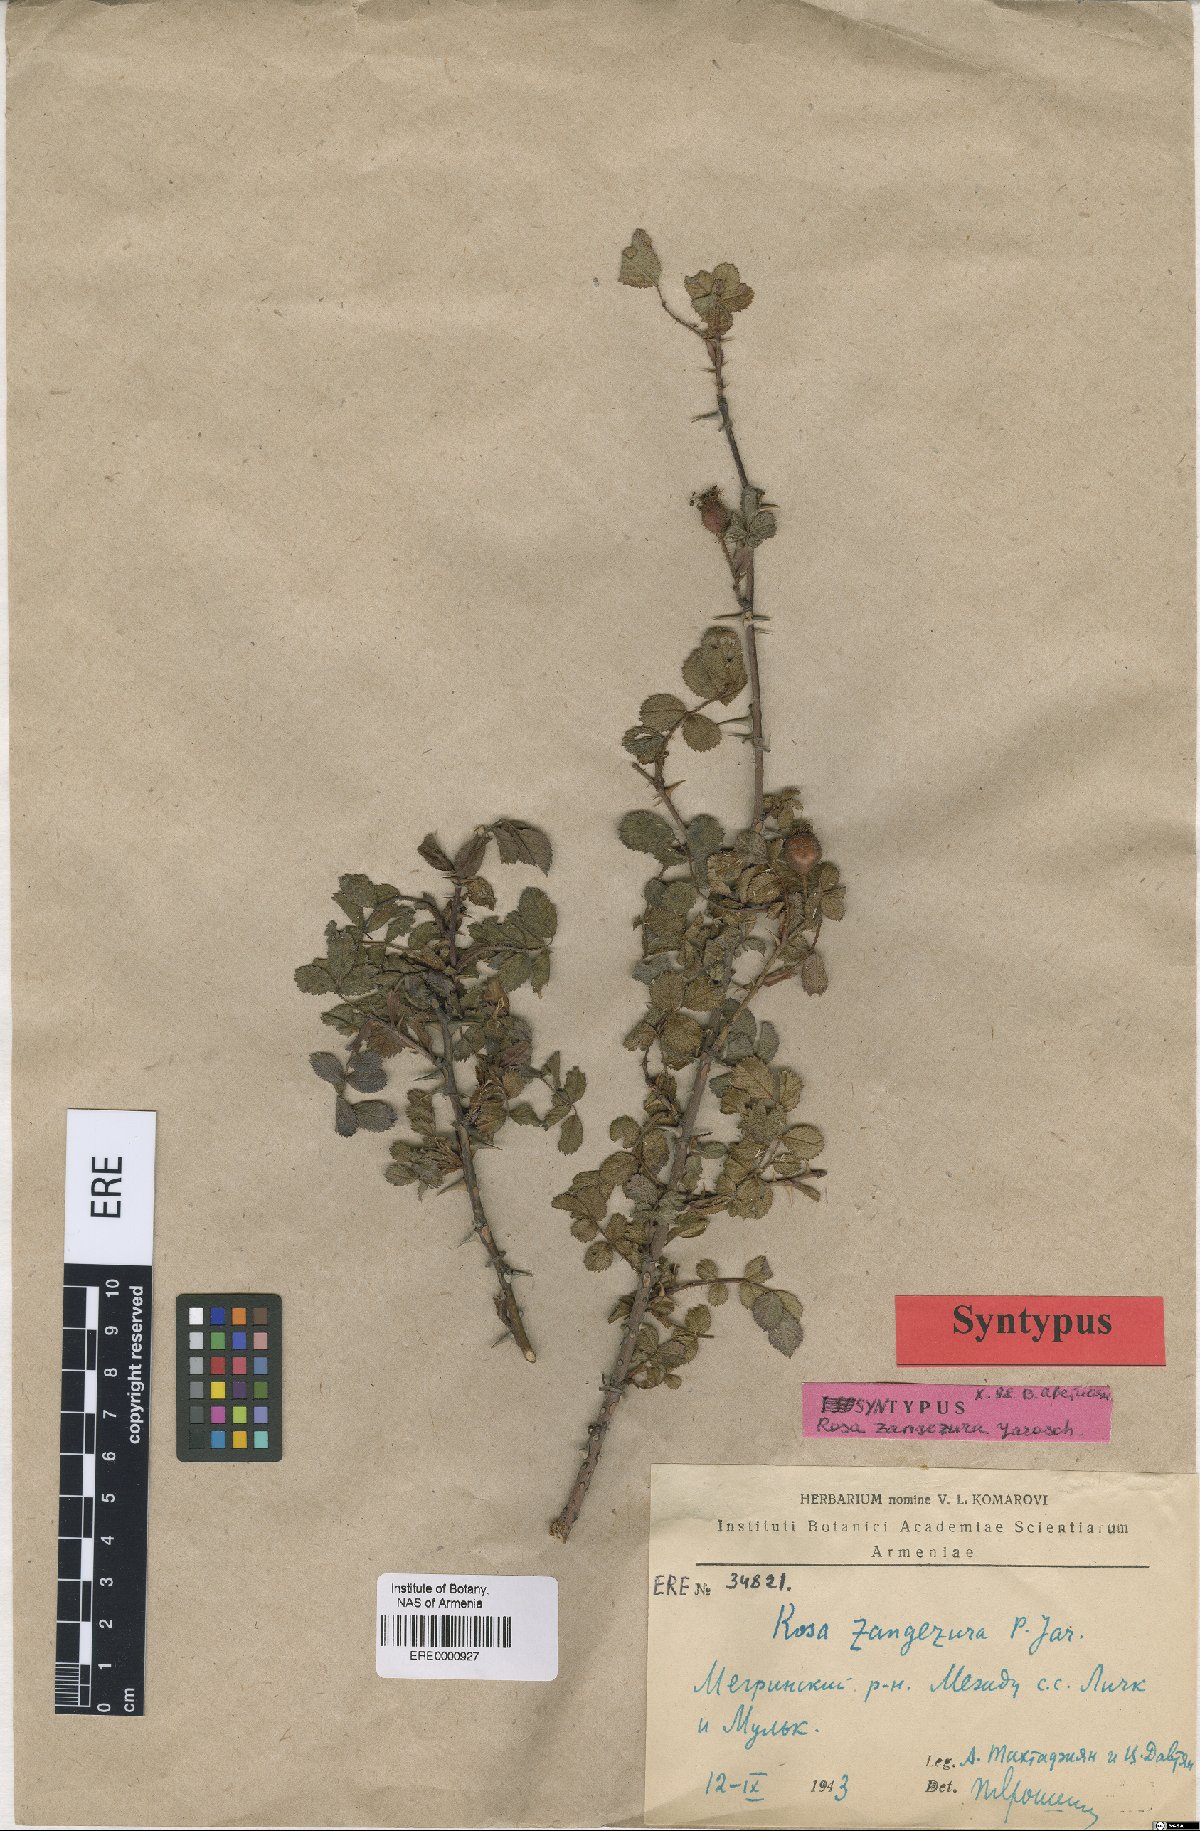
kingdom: Plantae
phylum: Tracheophyta
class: Magnoliopsida
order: Rosales
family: Rosaceae
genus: Rosa
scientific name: Rosa zangezura
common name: Zangezurian rose
